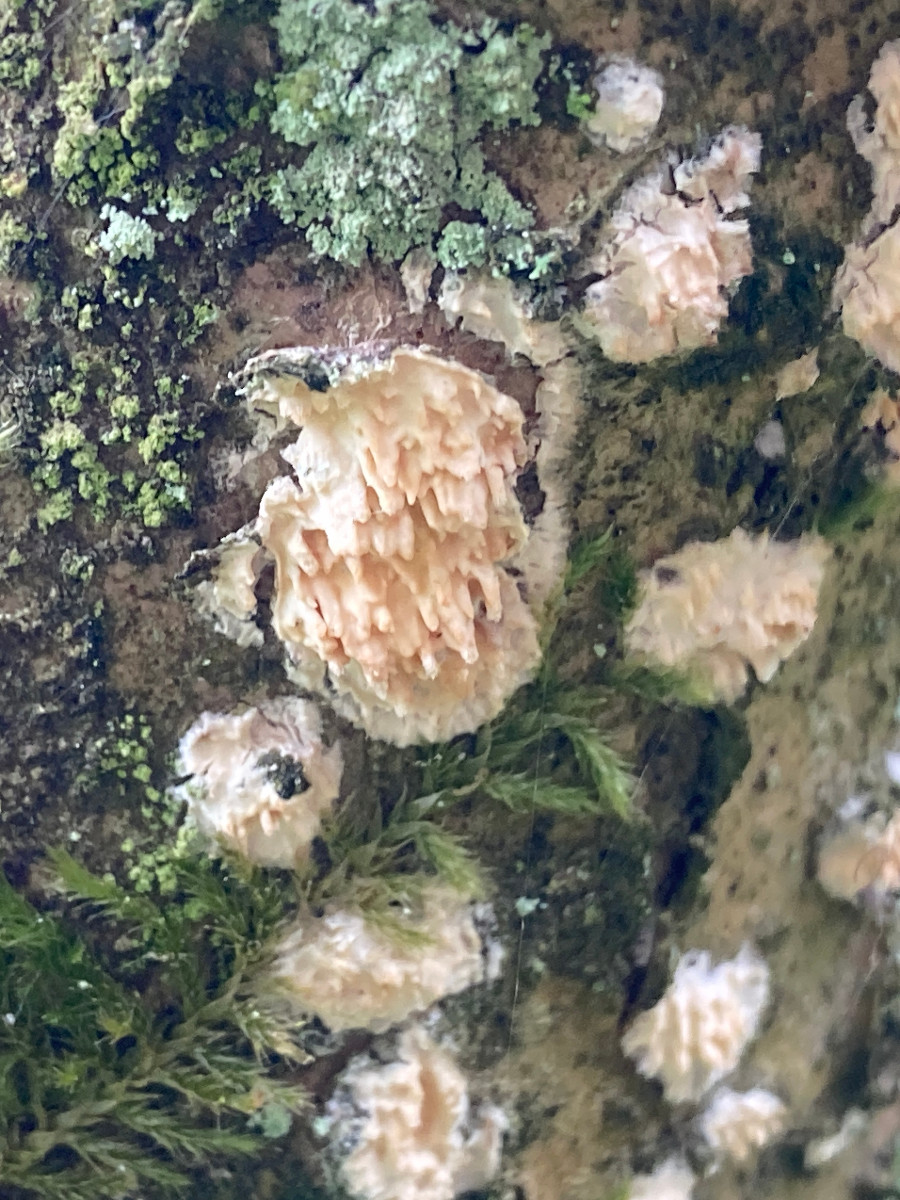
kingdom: Fungi
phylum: Basidiomycota
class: Agaricomycetes
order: Hymenochaetales
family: Schizoporaceae
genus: Xylodon
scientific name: Xylodon radula
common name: grovtandet kalkskind
